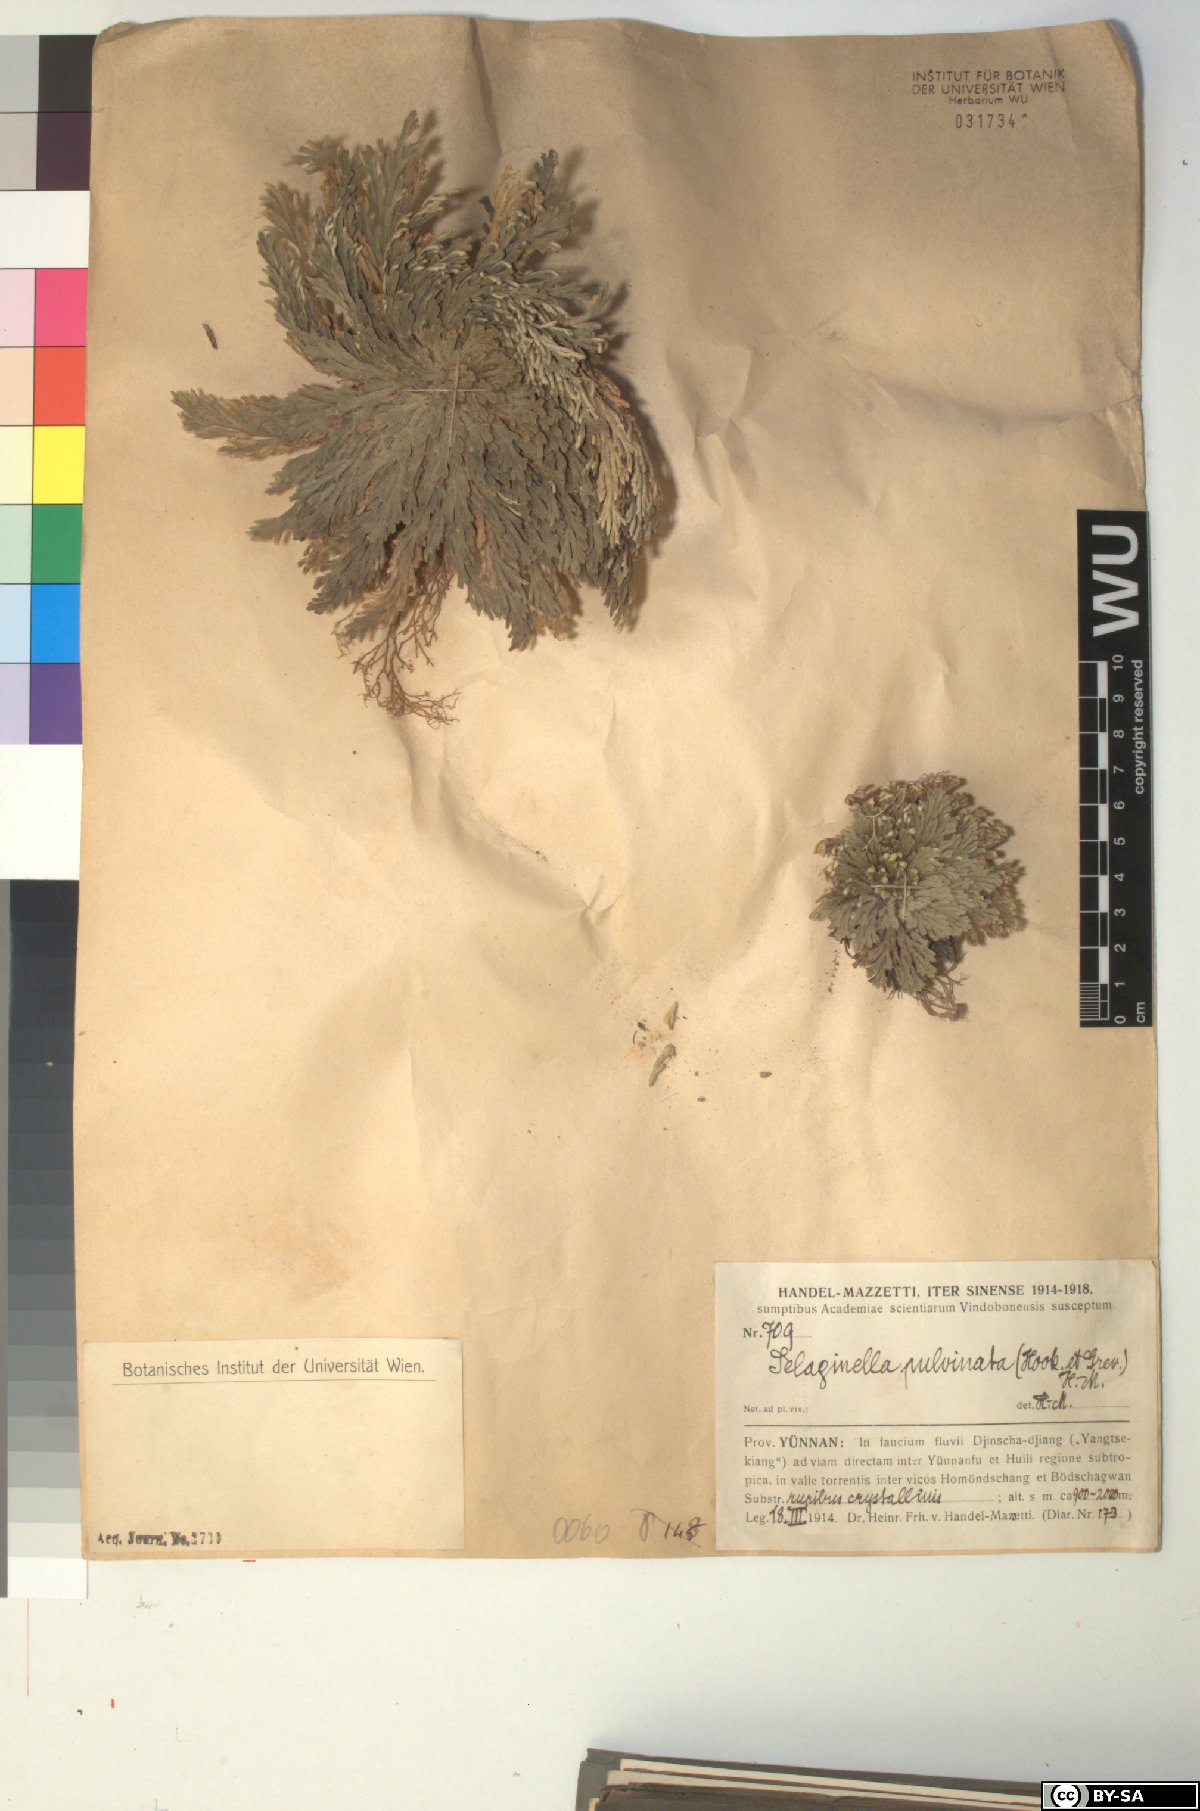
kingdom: Plantae
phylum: Tracheophyta
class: Lycopodiopsida
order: Selaginellales
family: Selaginellaceae
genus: Selaginella
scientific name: Selaginella pulvinata
